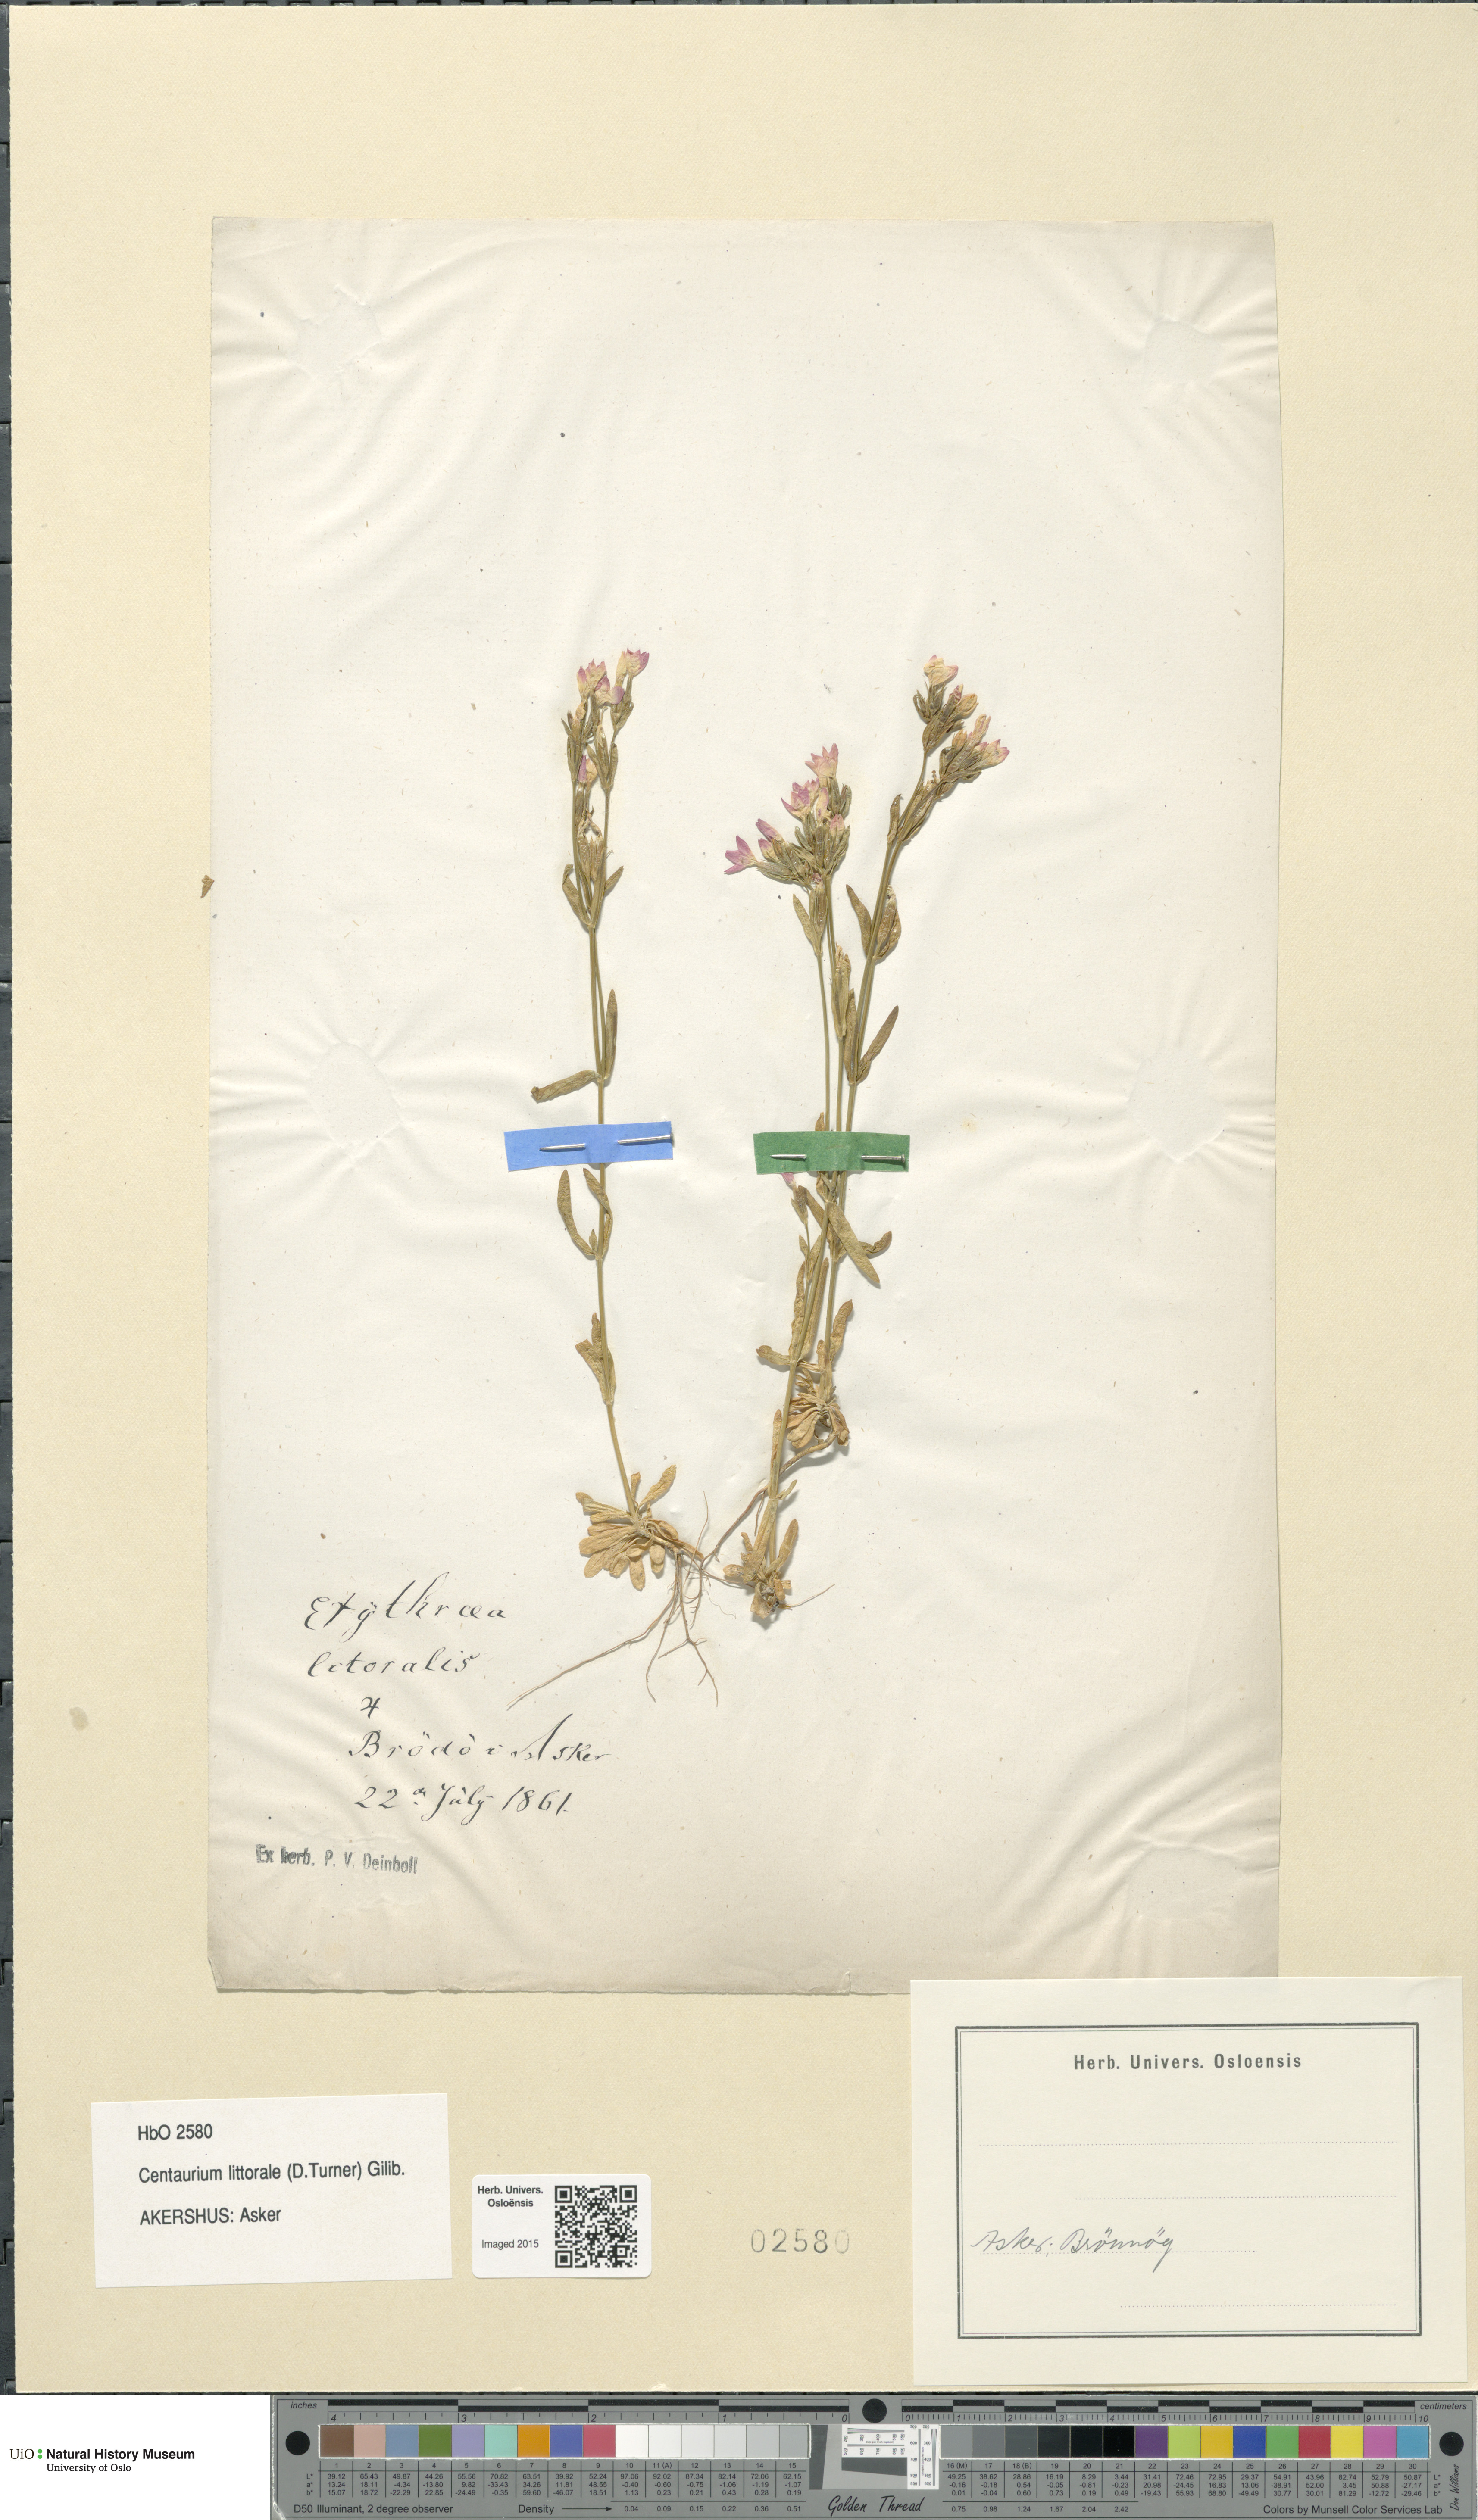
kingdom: Plantae
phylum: Tracheophyta
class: Magnoliopsida
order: Gentianales
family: Gentianaceae
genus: Centaurium
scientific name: Centaurium littorale
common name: Seaside centaury
